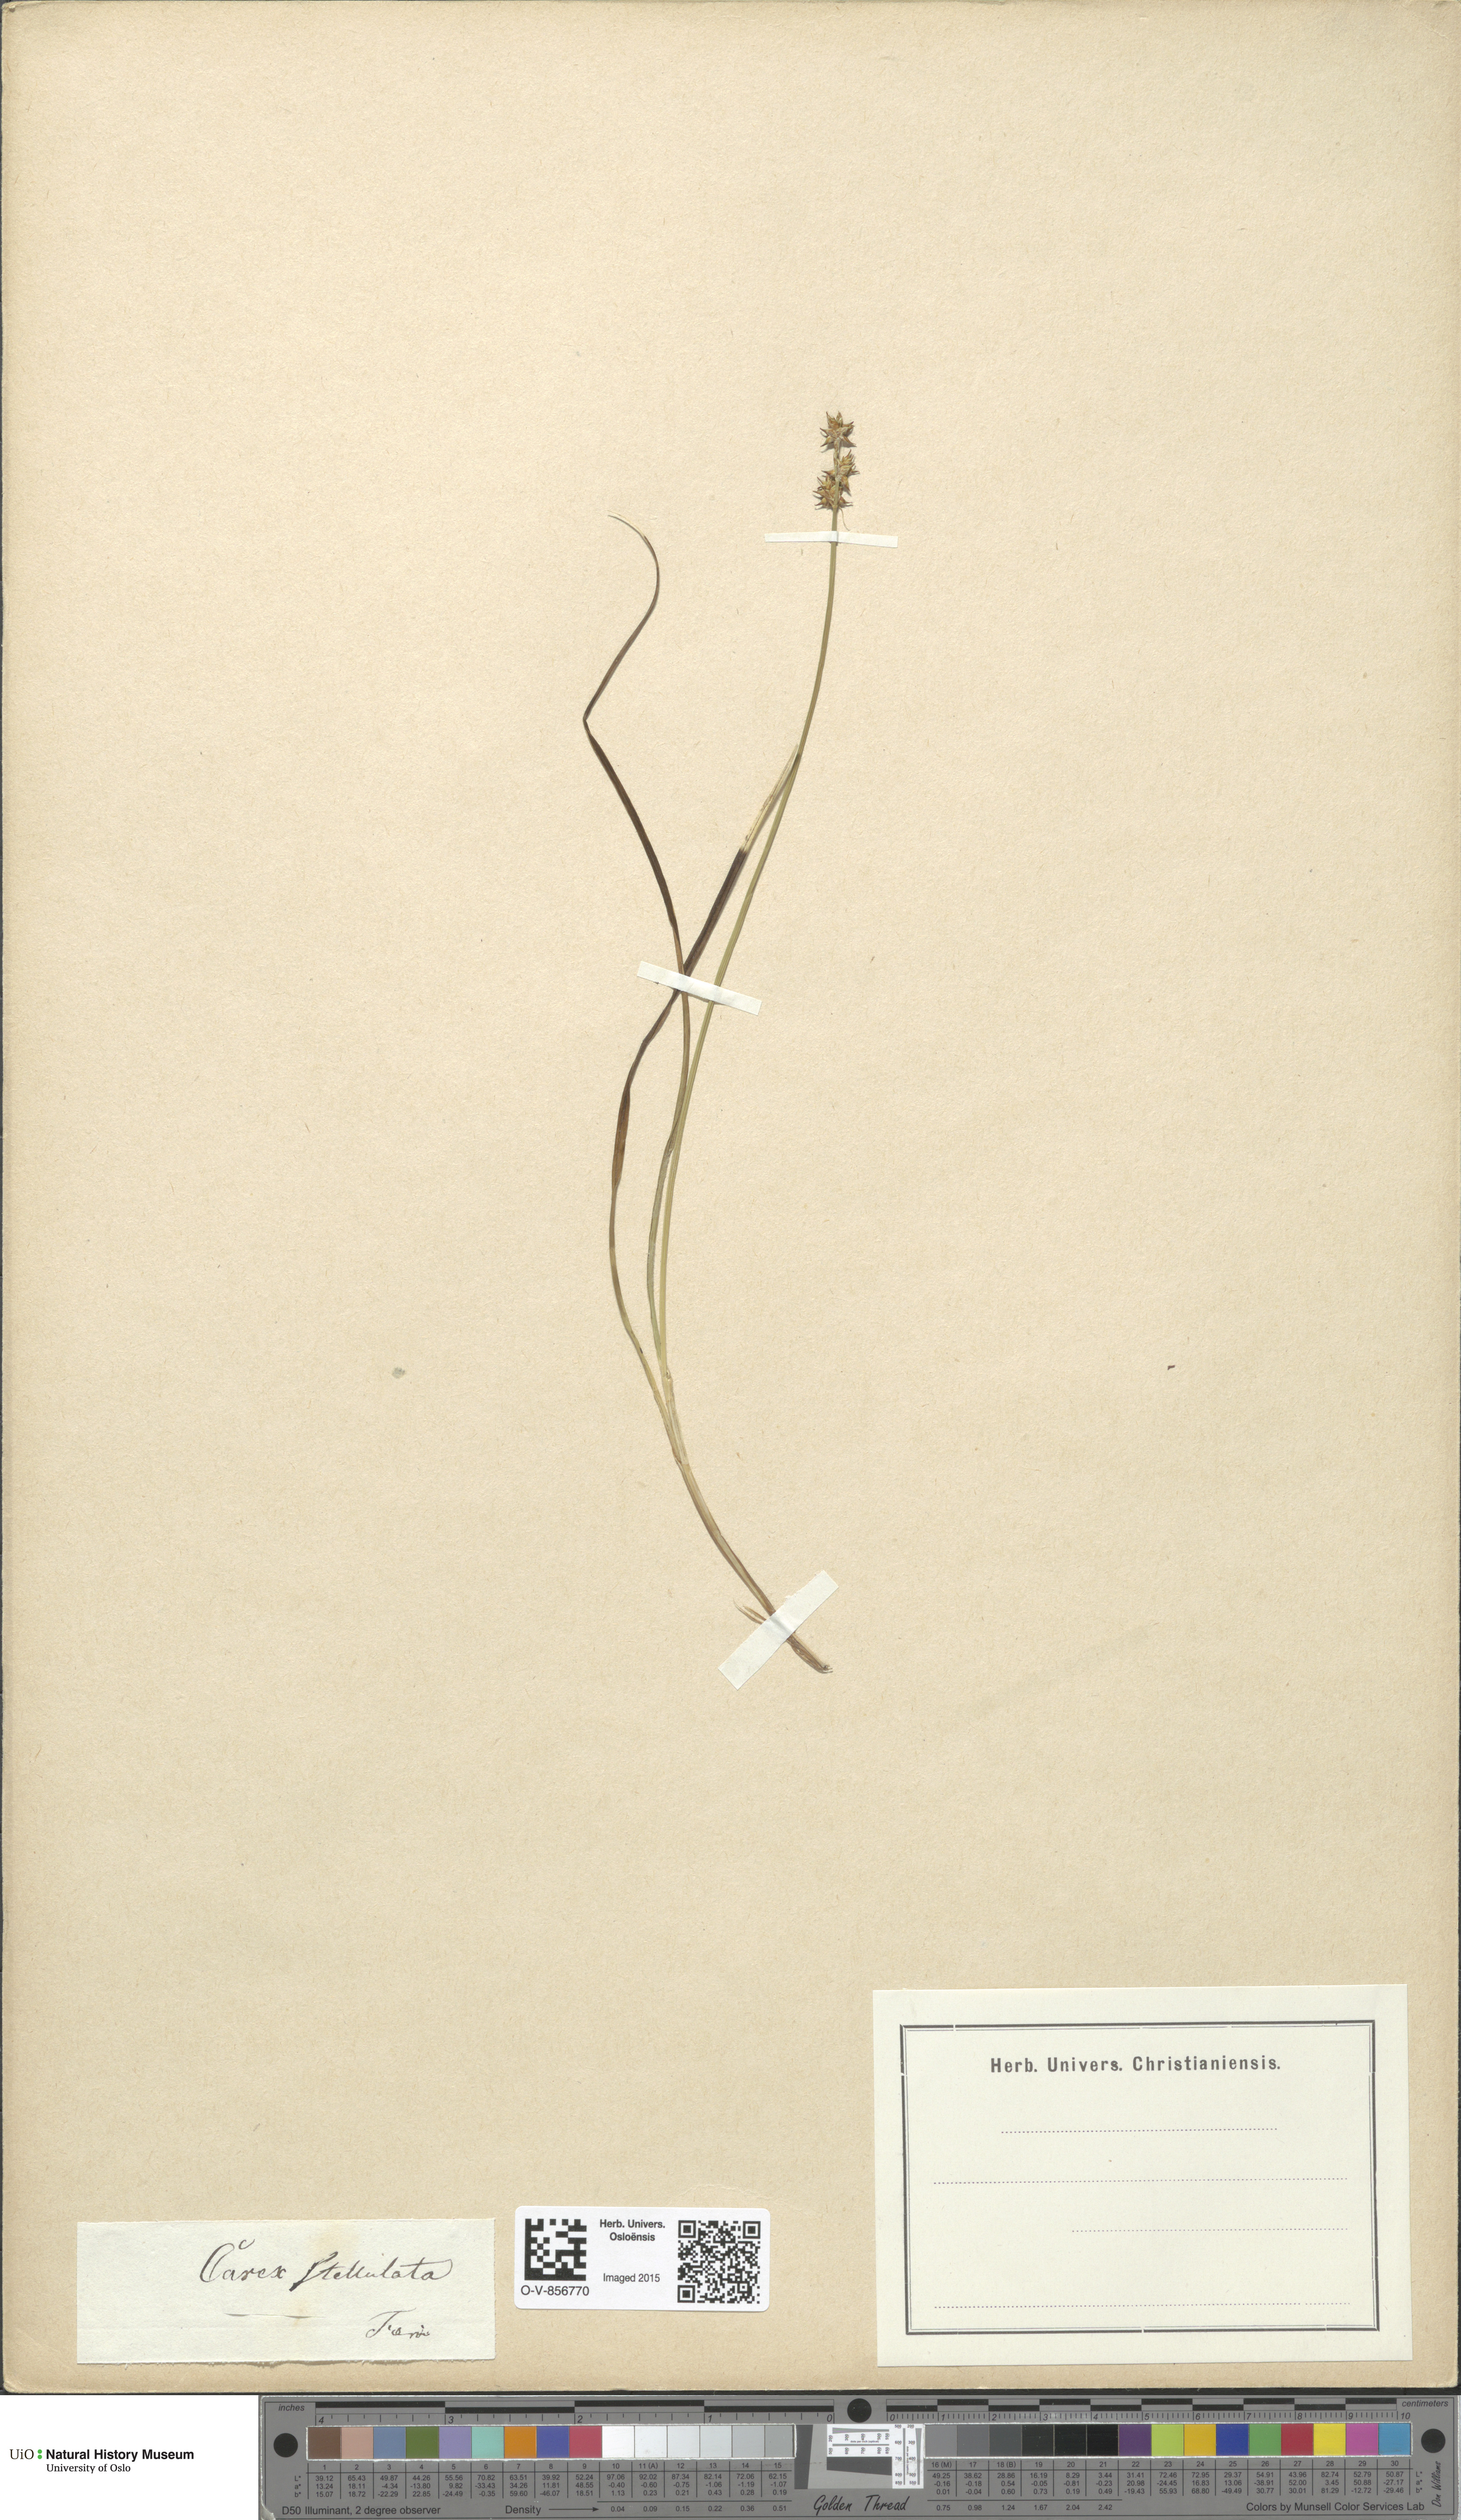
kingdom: Plantae
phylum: Tracheophyta
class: Liliopsida
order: Poales
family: Cyperaceae
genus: Carex
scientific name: Carex echinata
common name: Star sedge
